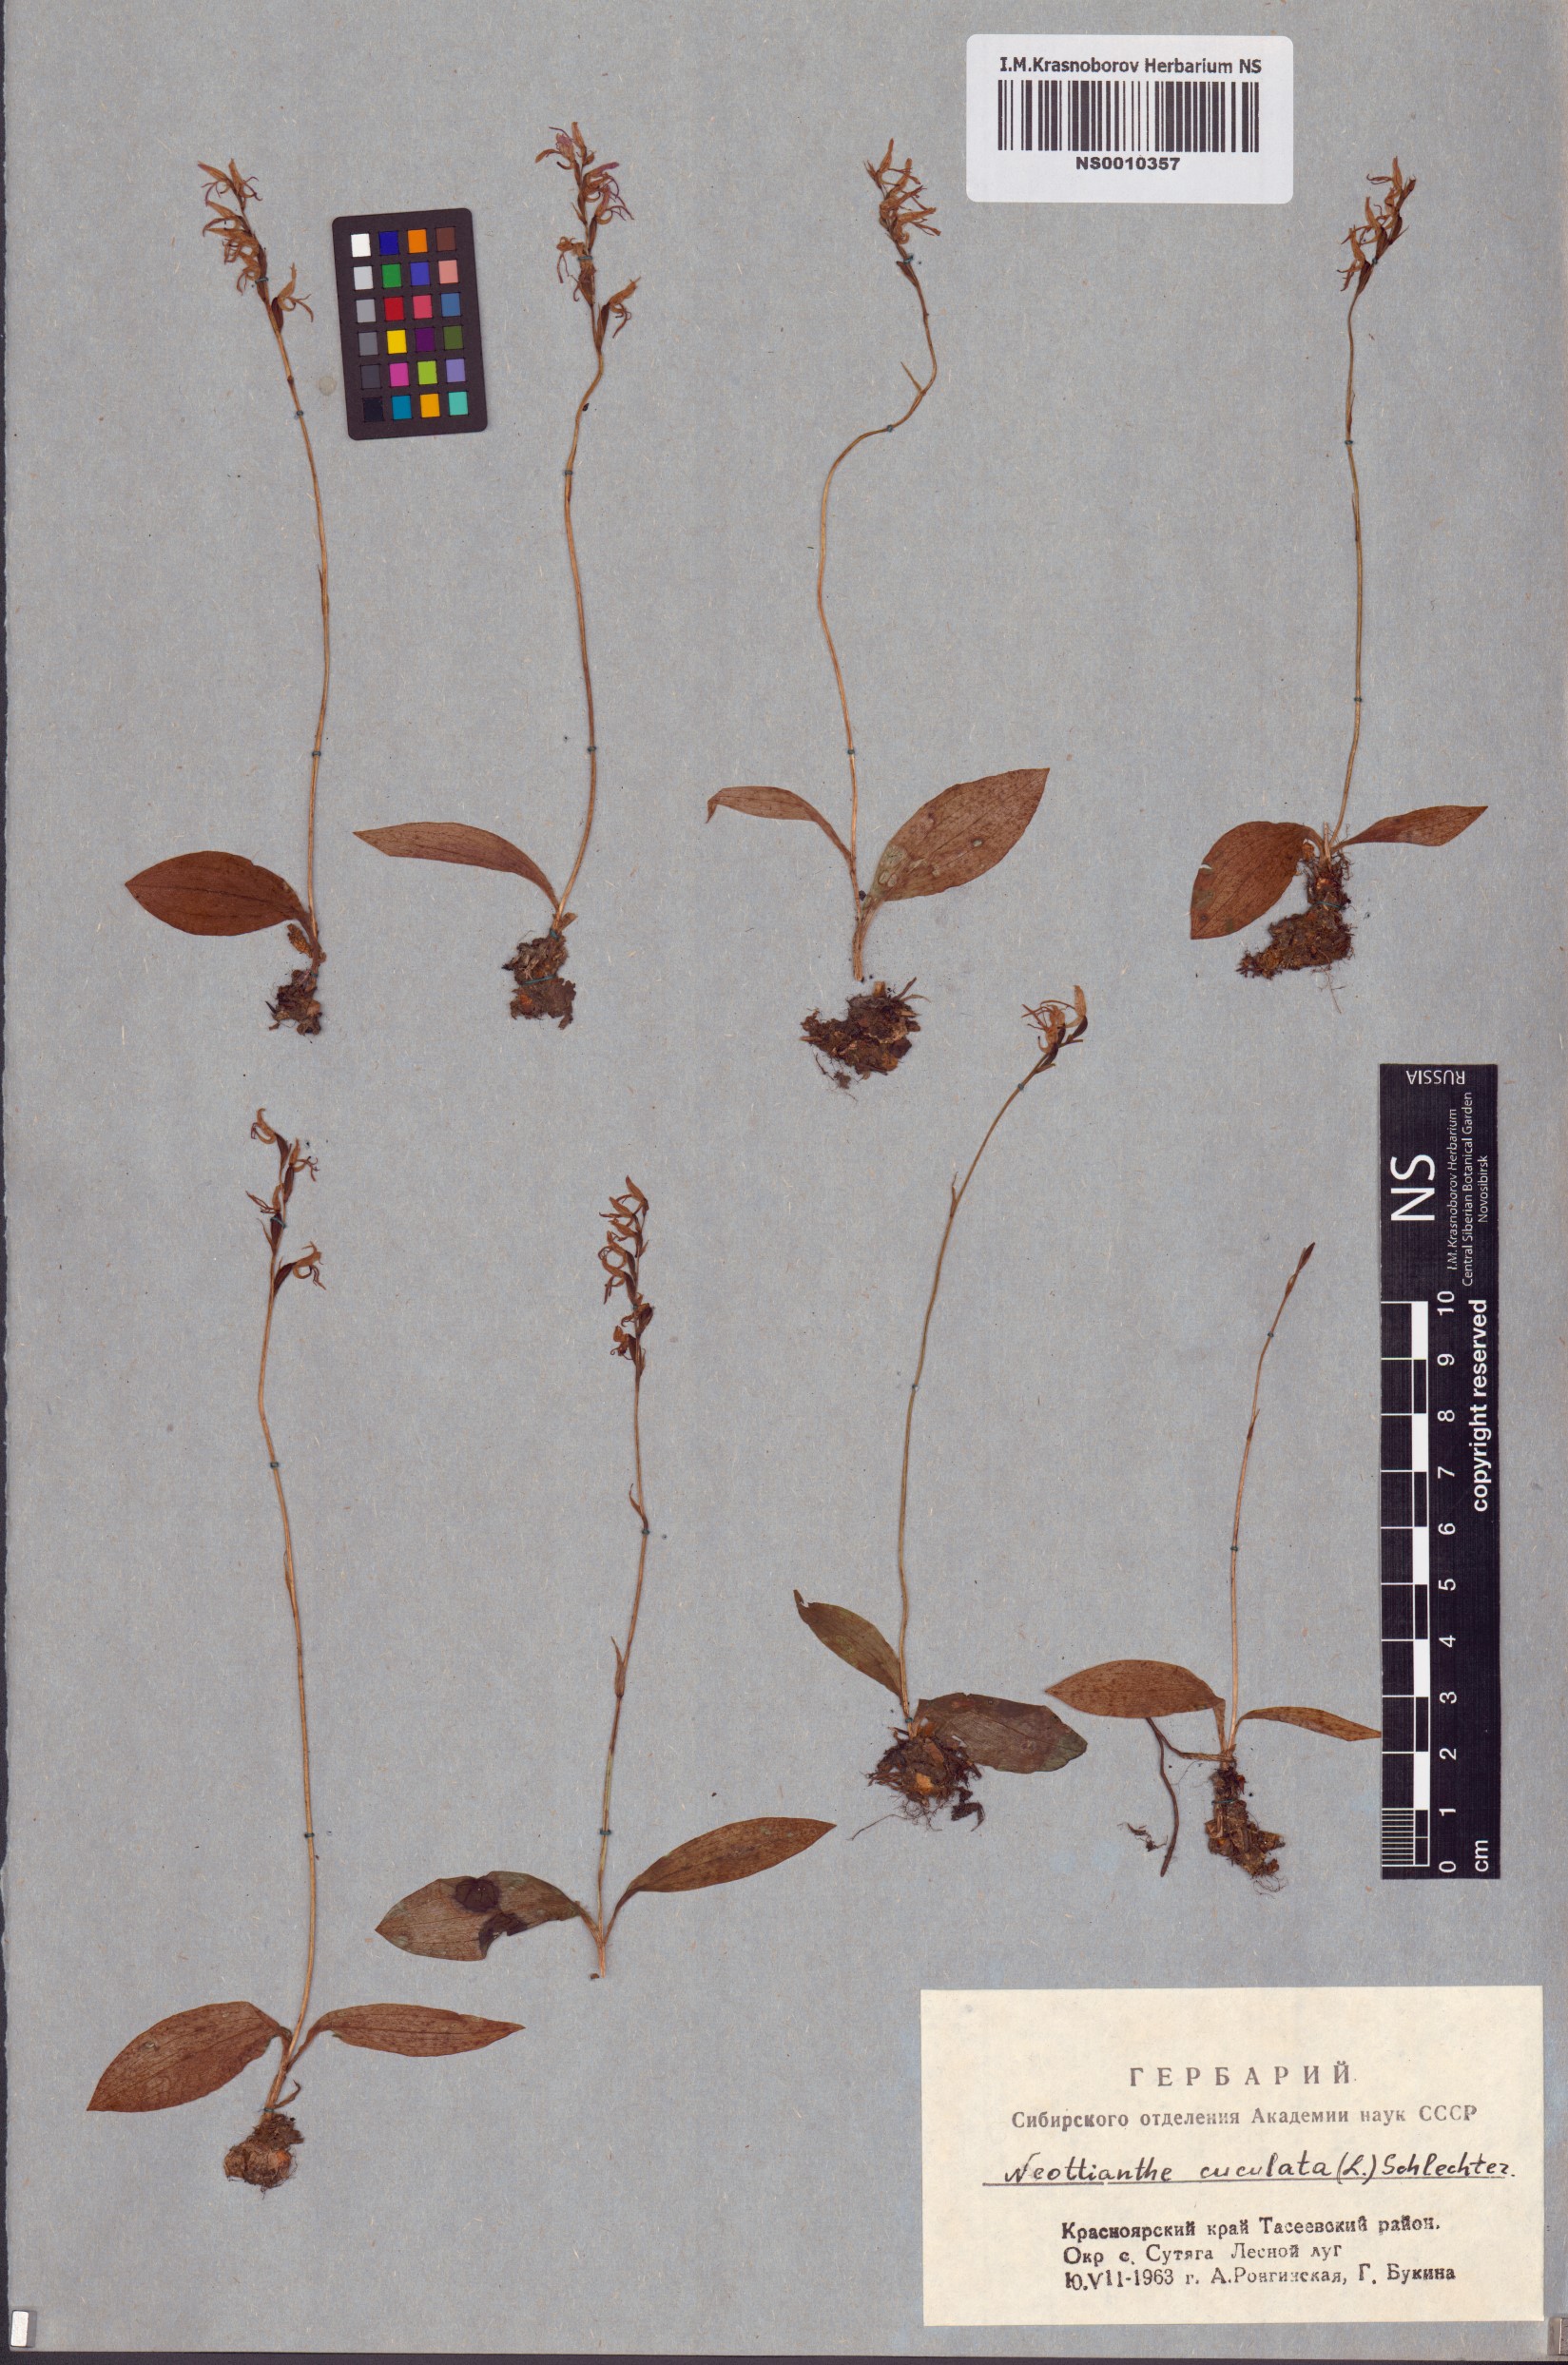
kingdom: Plantae
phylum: Tracheophyta
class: Liliopsida
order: Asparagales
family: Orchidaceae
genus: Hemipilia
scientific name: Hemipilia cucullata
